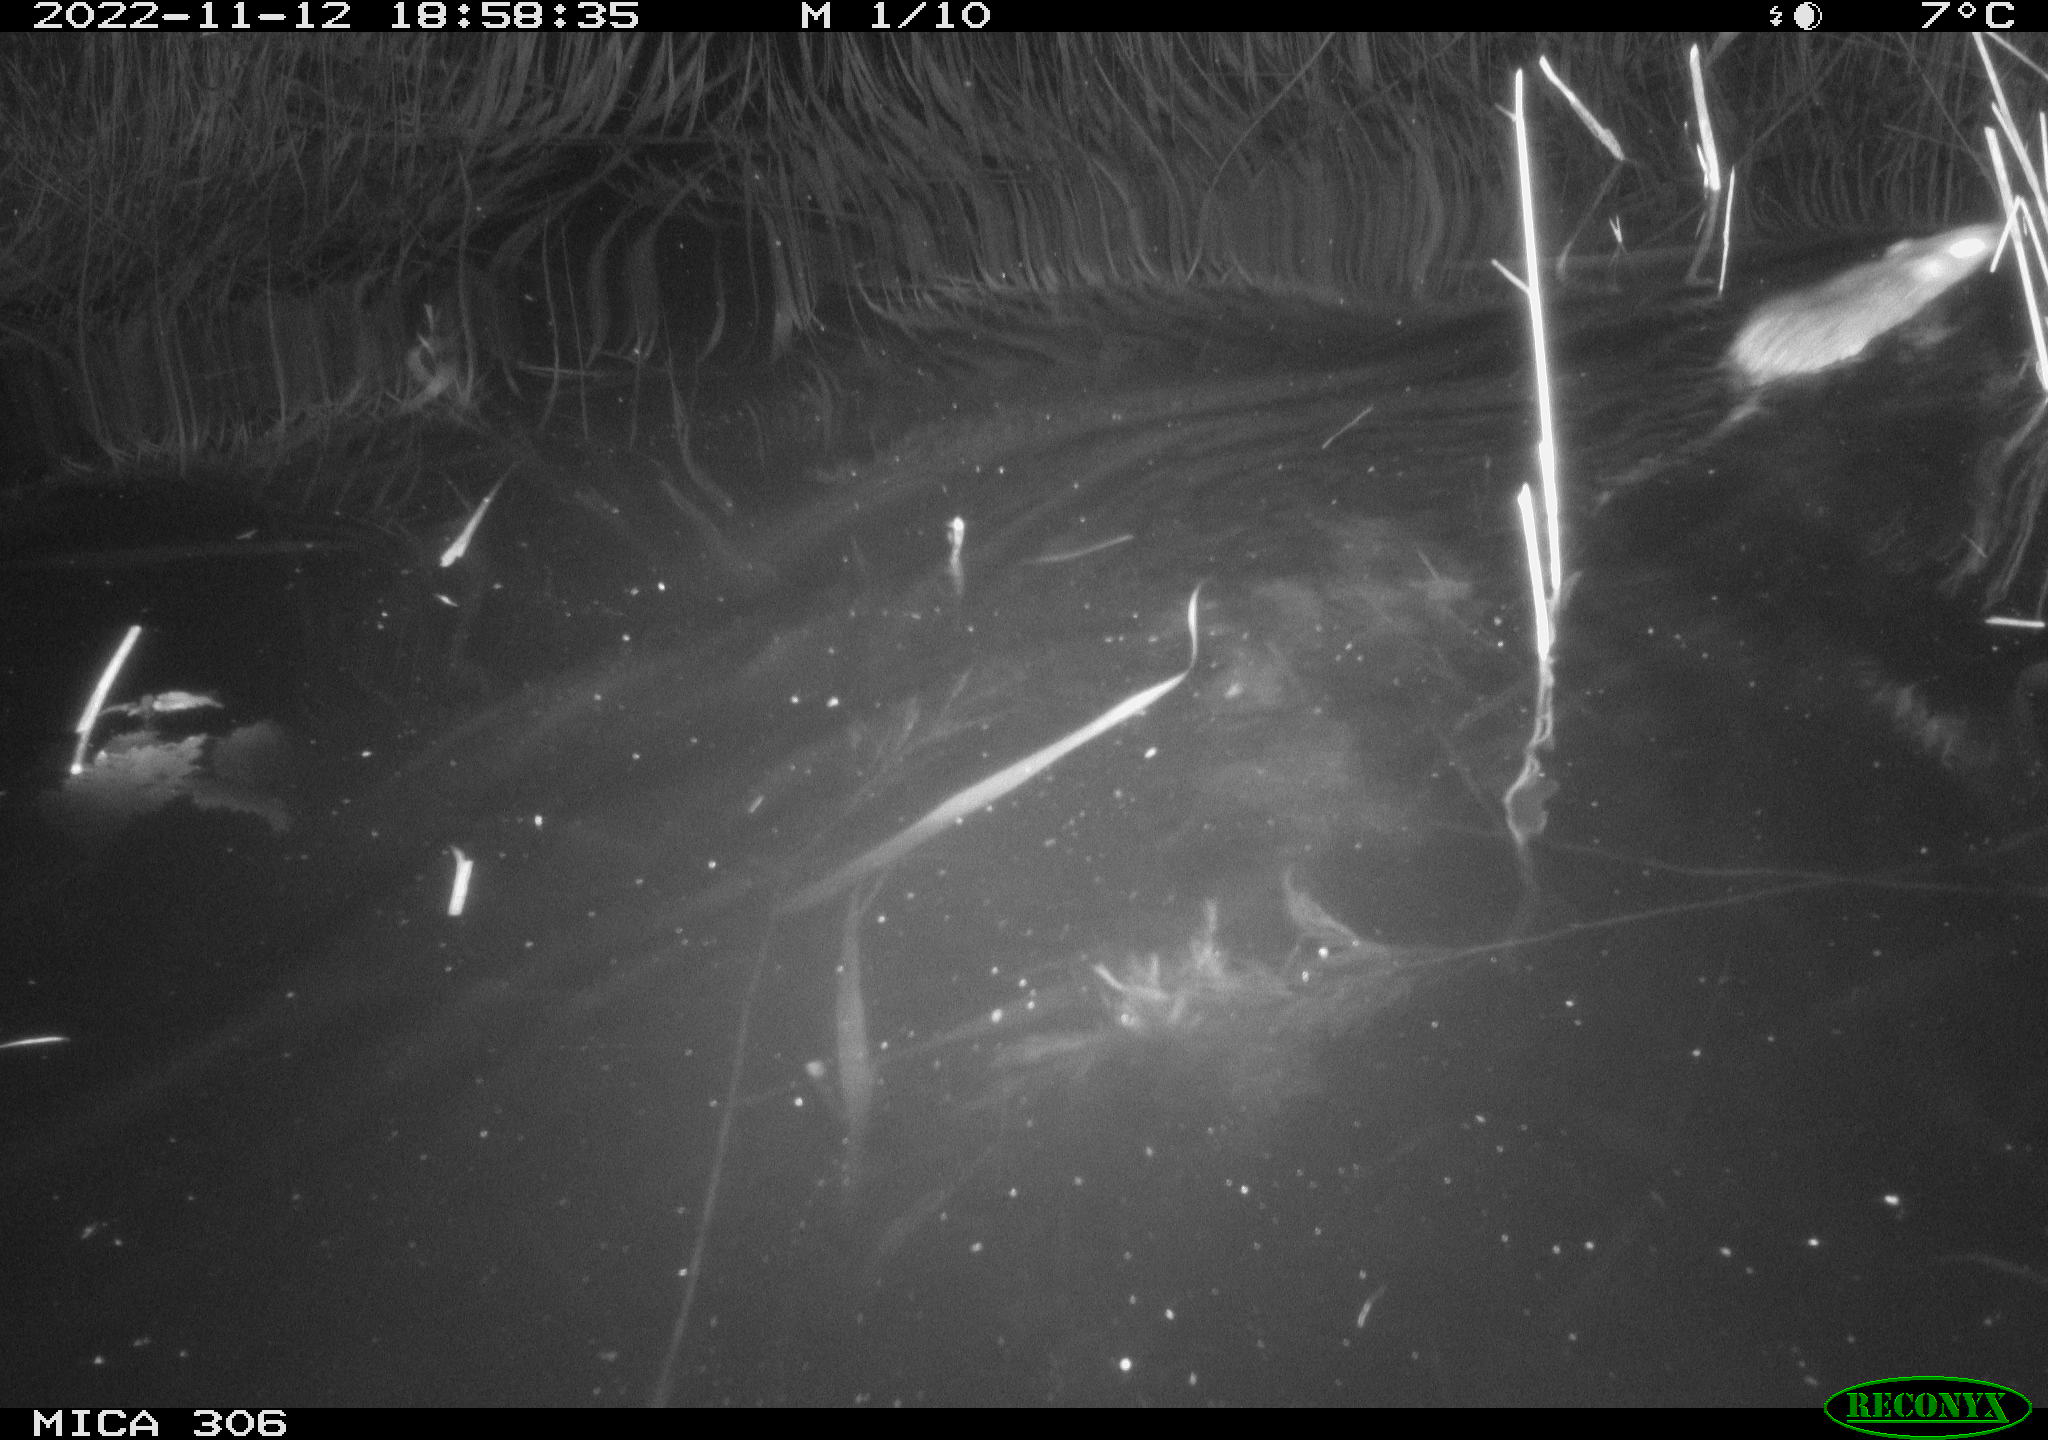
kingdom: Animalia
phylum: Chordata
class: Mammalia
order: Rodentia
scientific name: Rodentia
